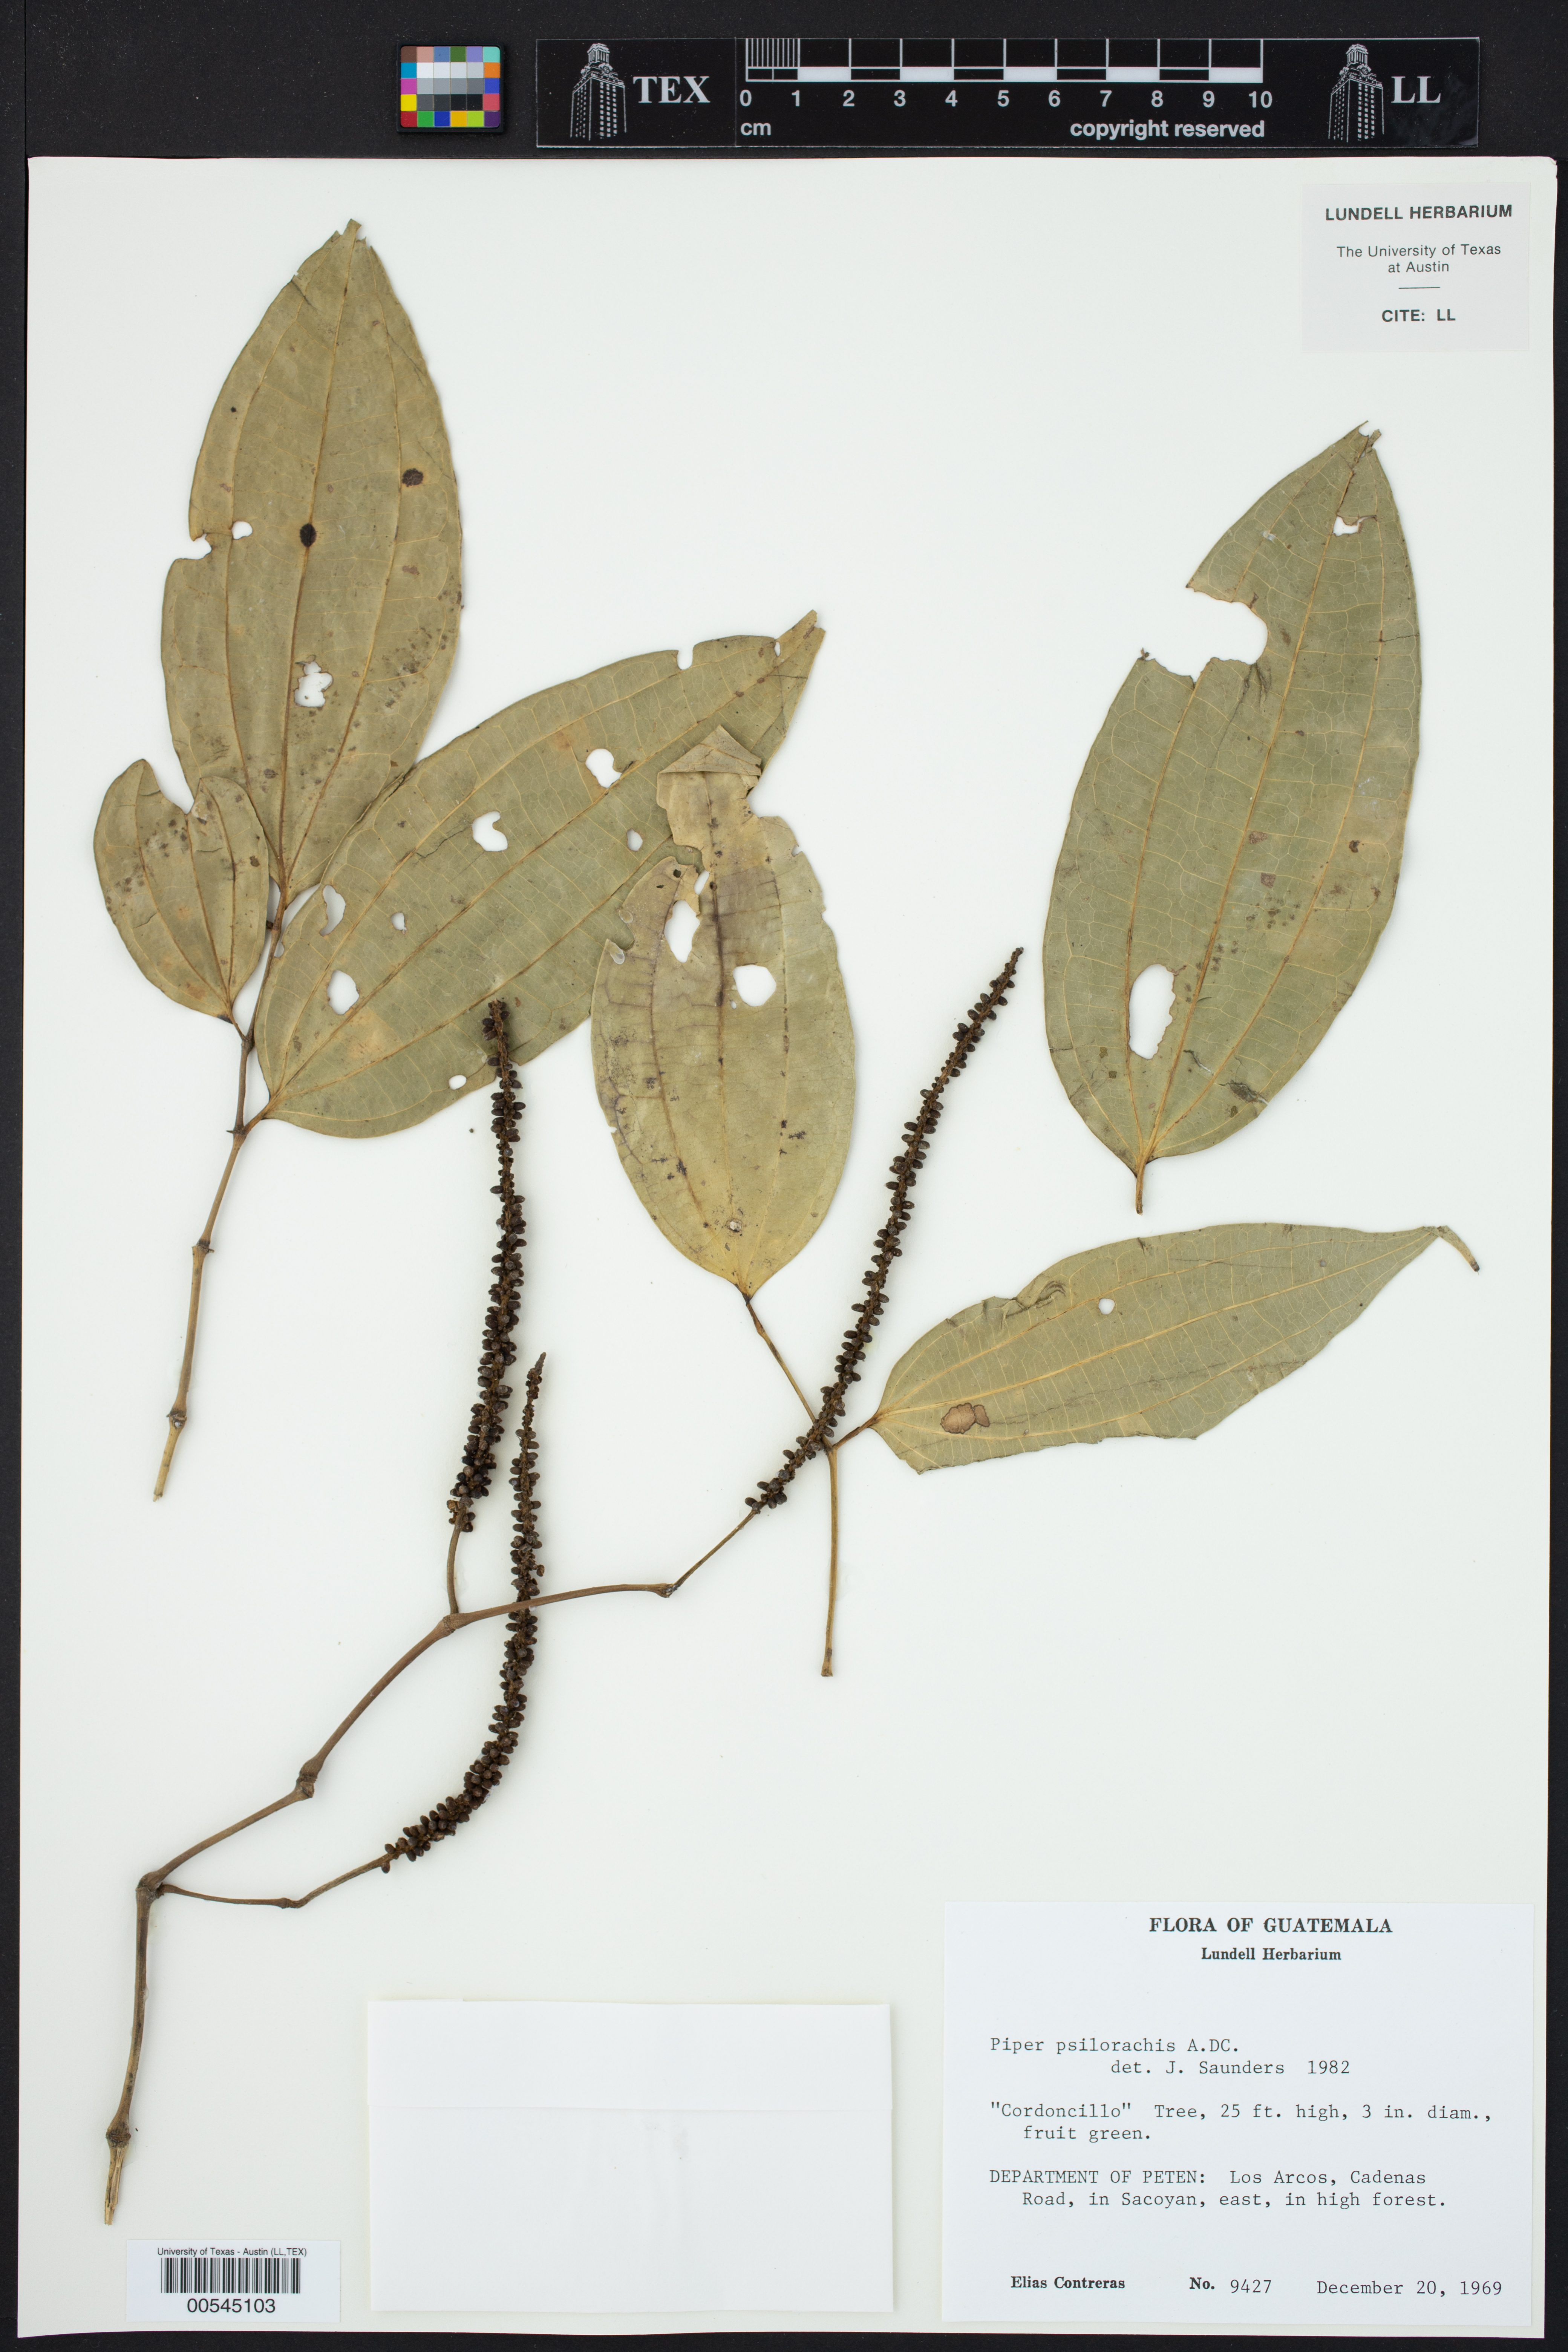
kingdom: Plantae
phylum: Tracheophyta
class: Magnoliopsida
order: Piperales
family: Piperaceae
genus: Piper
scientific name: Piper psilorhachis
